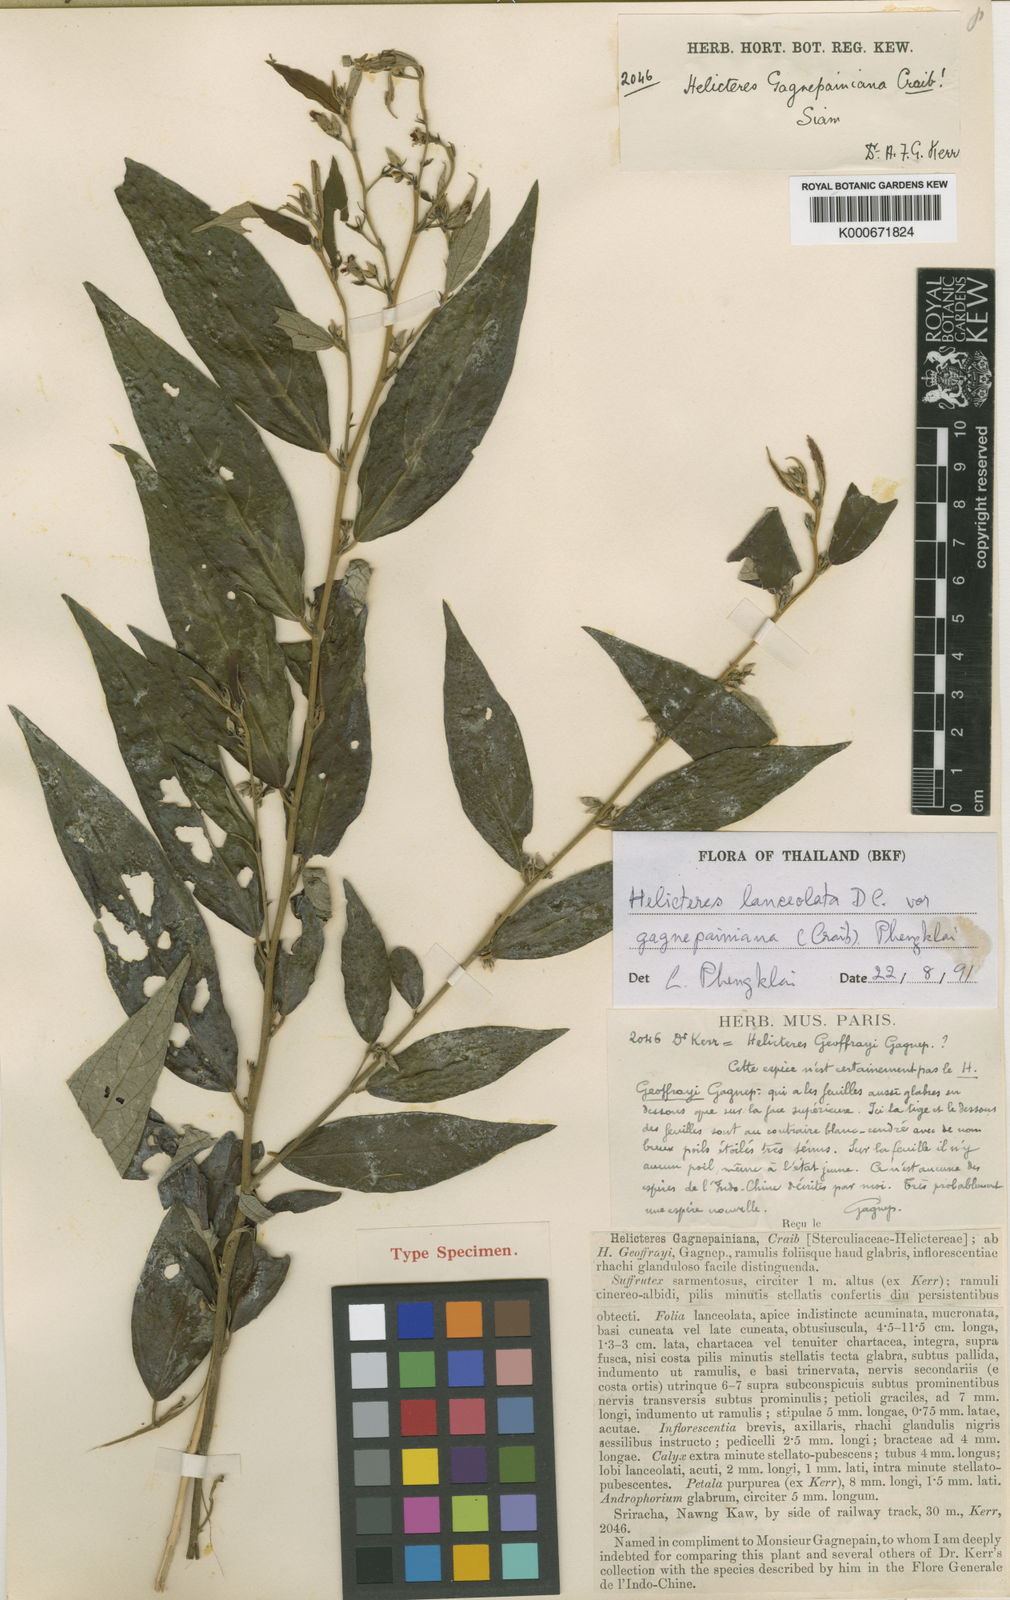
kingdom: Plantae
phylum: Tracheophyta
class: Magnoliopsida
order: Malvales
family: Malvaceae
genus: Helicteres
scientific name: Helicteres lanceolata
